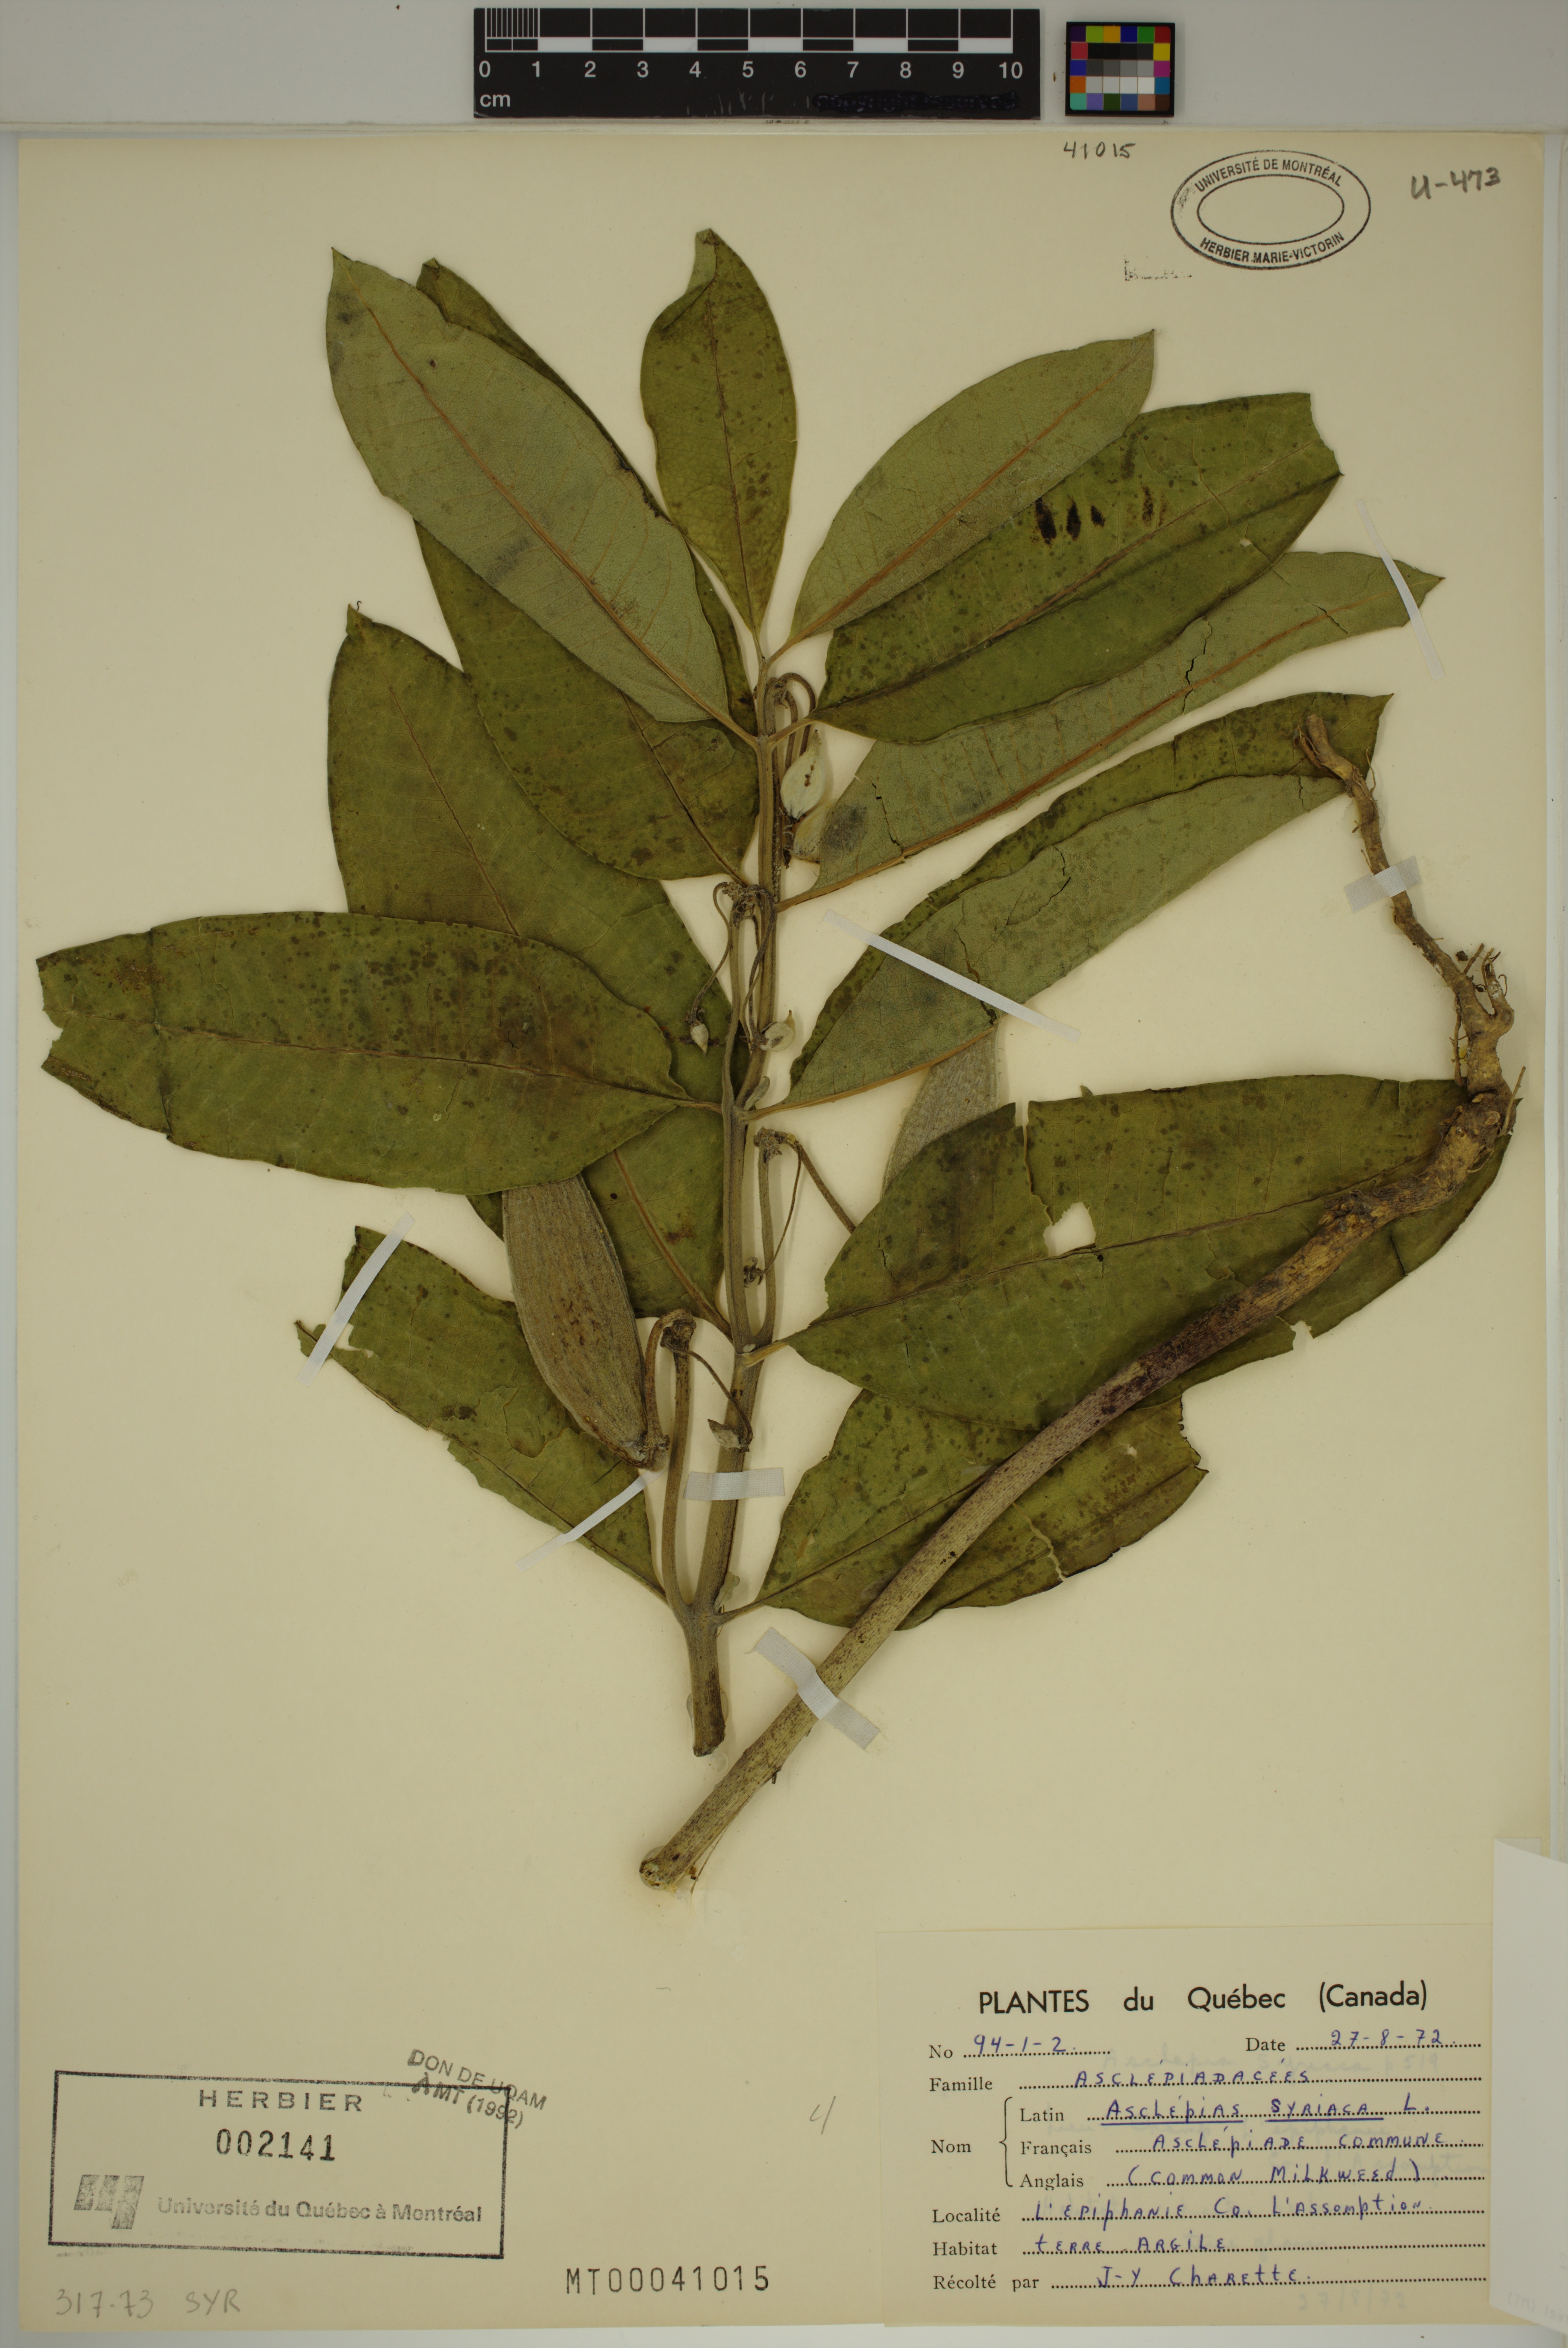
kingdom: Plantae
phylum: Tracheophyta
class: Magnoliopsida
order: Gentianales
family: Apocynaceae
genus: Asclepias
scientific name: Asclepias syriaca
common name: Common milkweed
